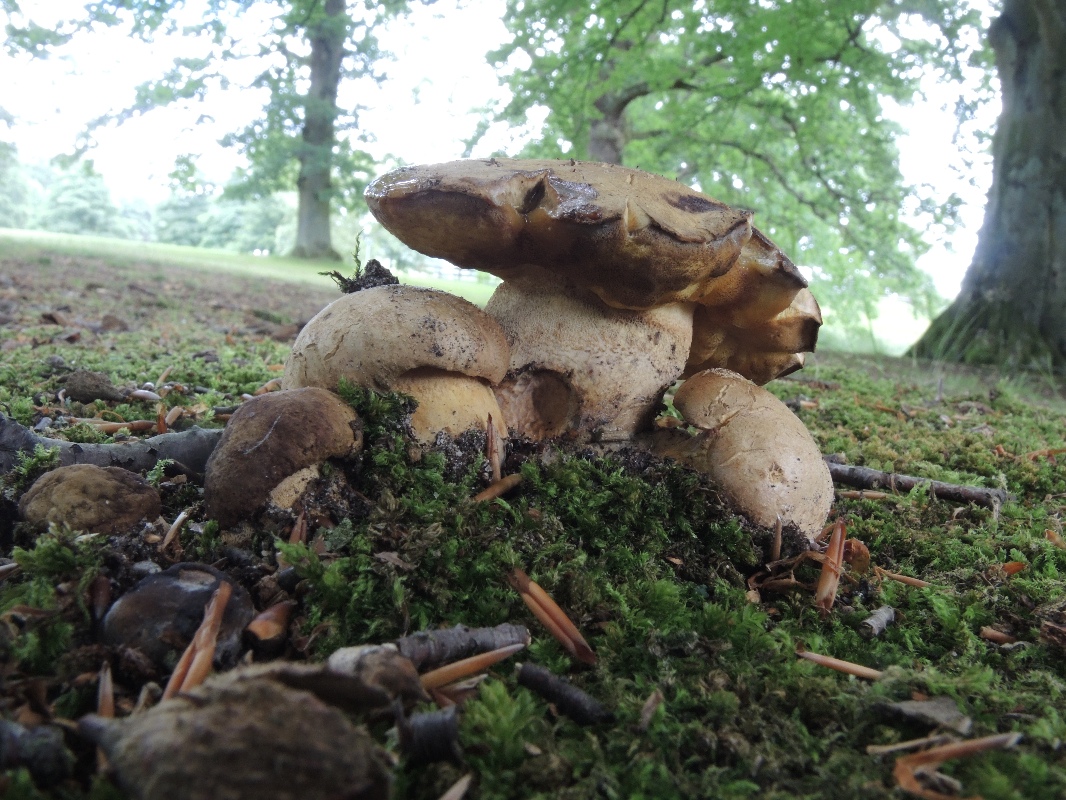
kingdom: Fungi
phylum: Basidiomycota
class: Agaricomycetes
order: Boletales
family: Boletaceae
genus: Butyriboletus
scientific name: Butyriboletus appendiculatus
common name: tenstokket rørhat
